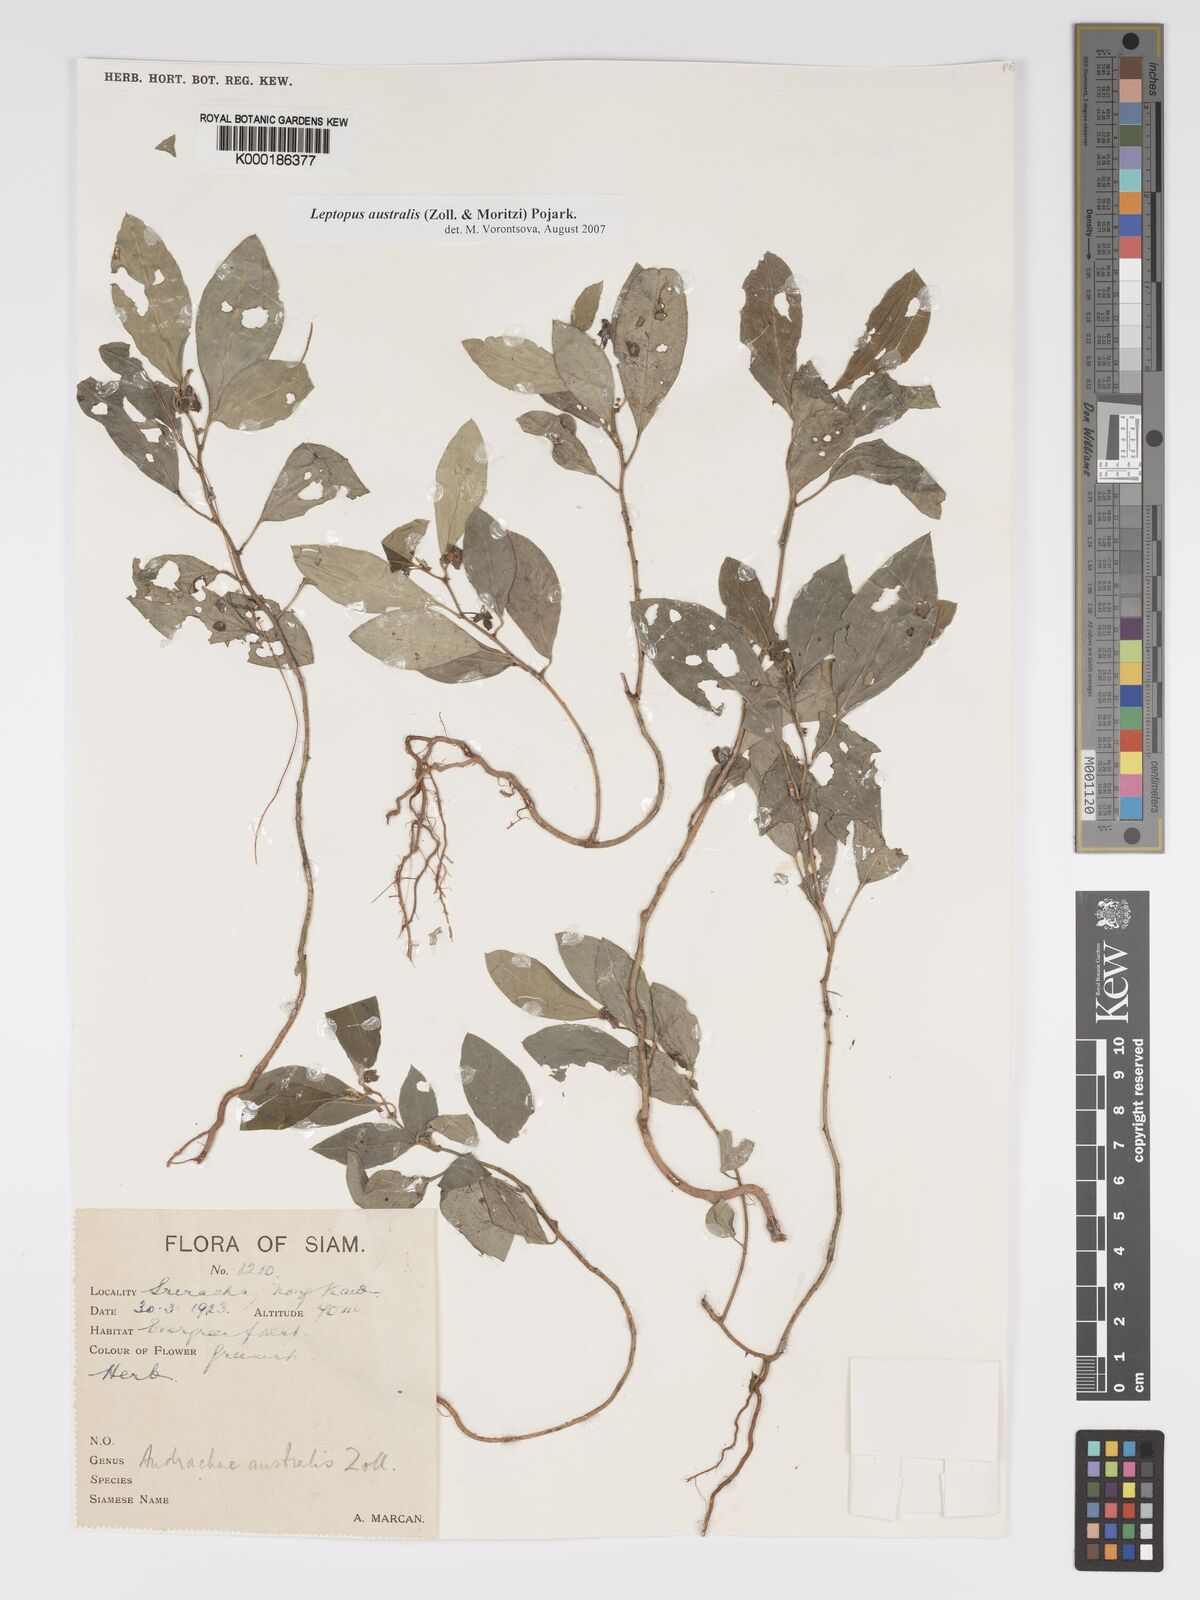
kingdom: Plantae
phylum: Tracheophyta
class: Magnoliopsida
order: Malpighiales
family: Phyllanthaceae
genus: Andrachne
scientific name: Andrachne
